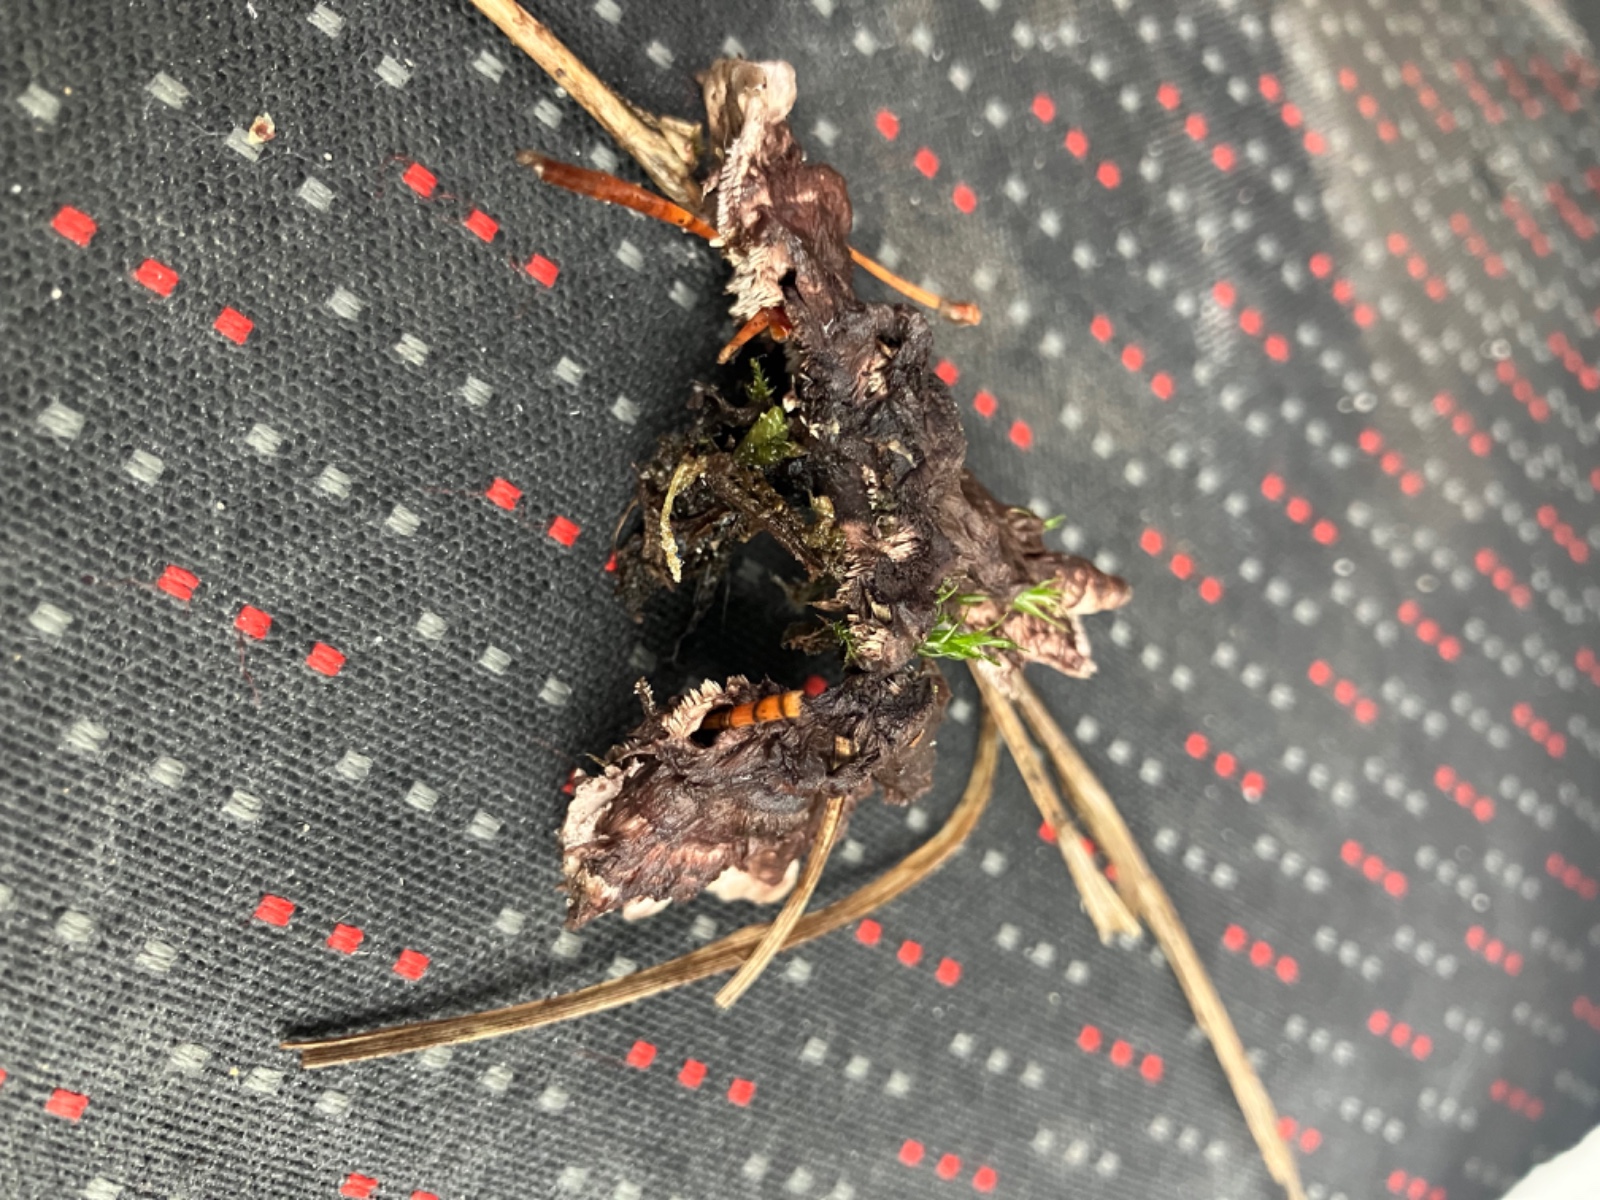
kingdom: Fungi
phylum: Basidiomycota
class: Agaricomycetes
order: Thelephorales
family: Thelephoraceae
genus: Phellodon
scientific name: Phellodon tomentosus
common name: vellugtende duftpigsvamp
